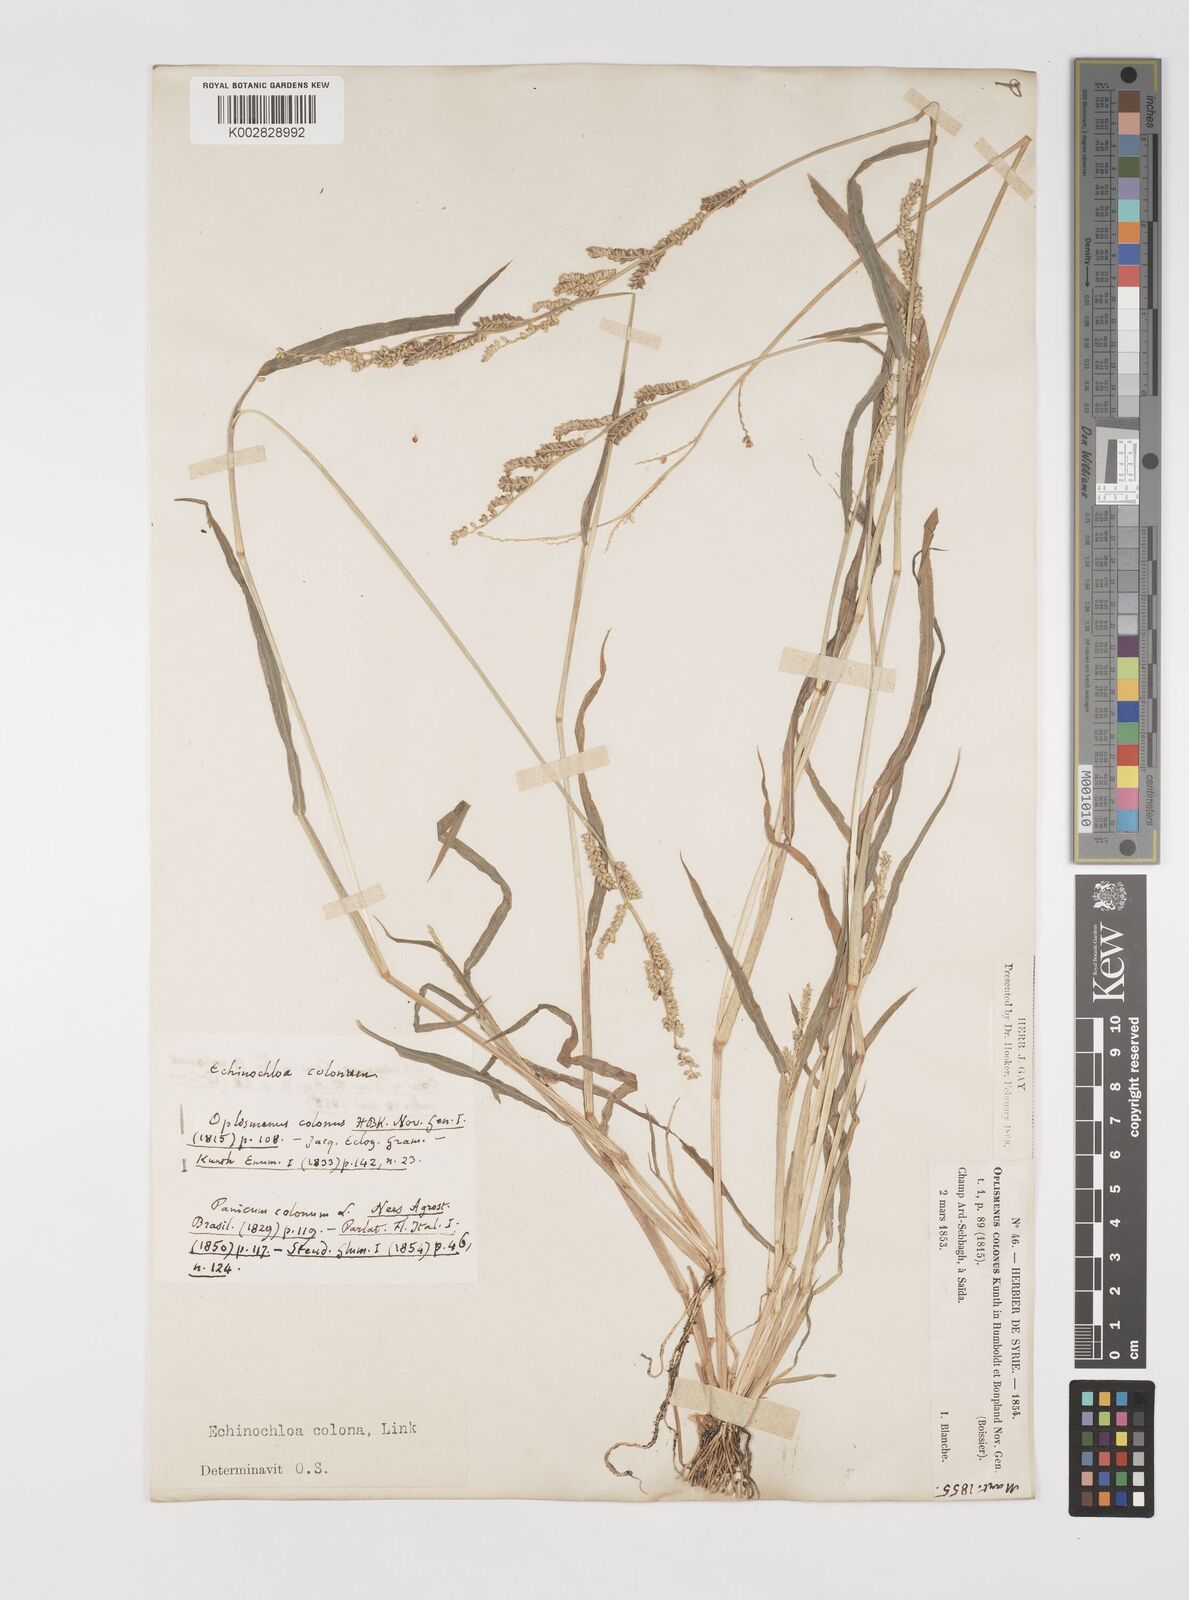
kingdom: Plantae
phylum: Tracheophyta
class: Liliopsida
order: Poales
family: Poaceae
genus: Echinochloa
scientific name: Echinochloa colonum
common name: Jungle rice
